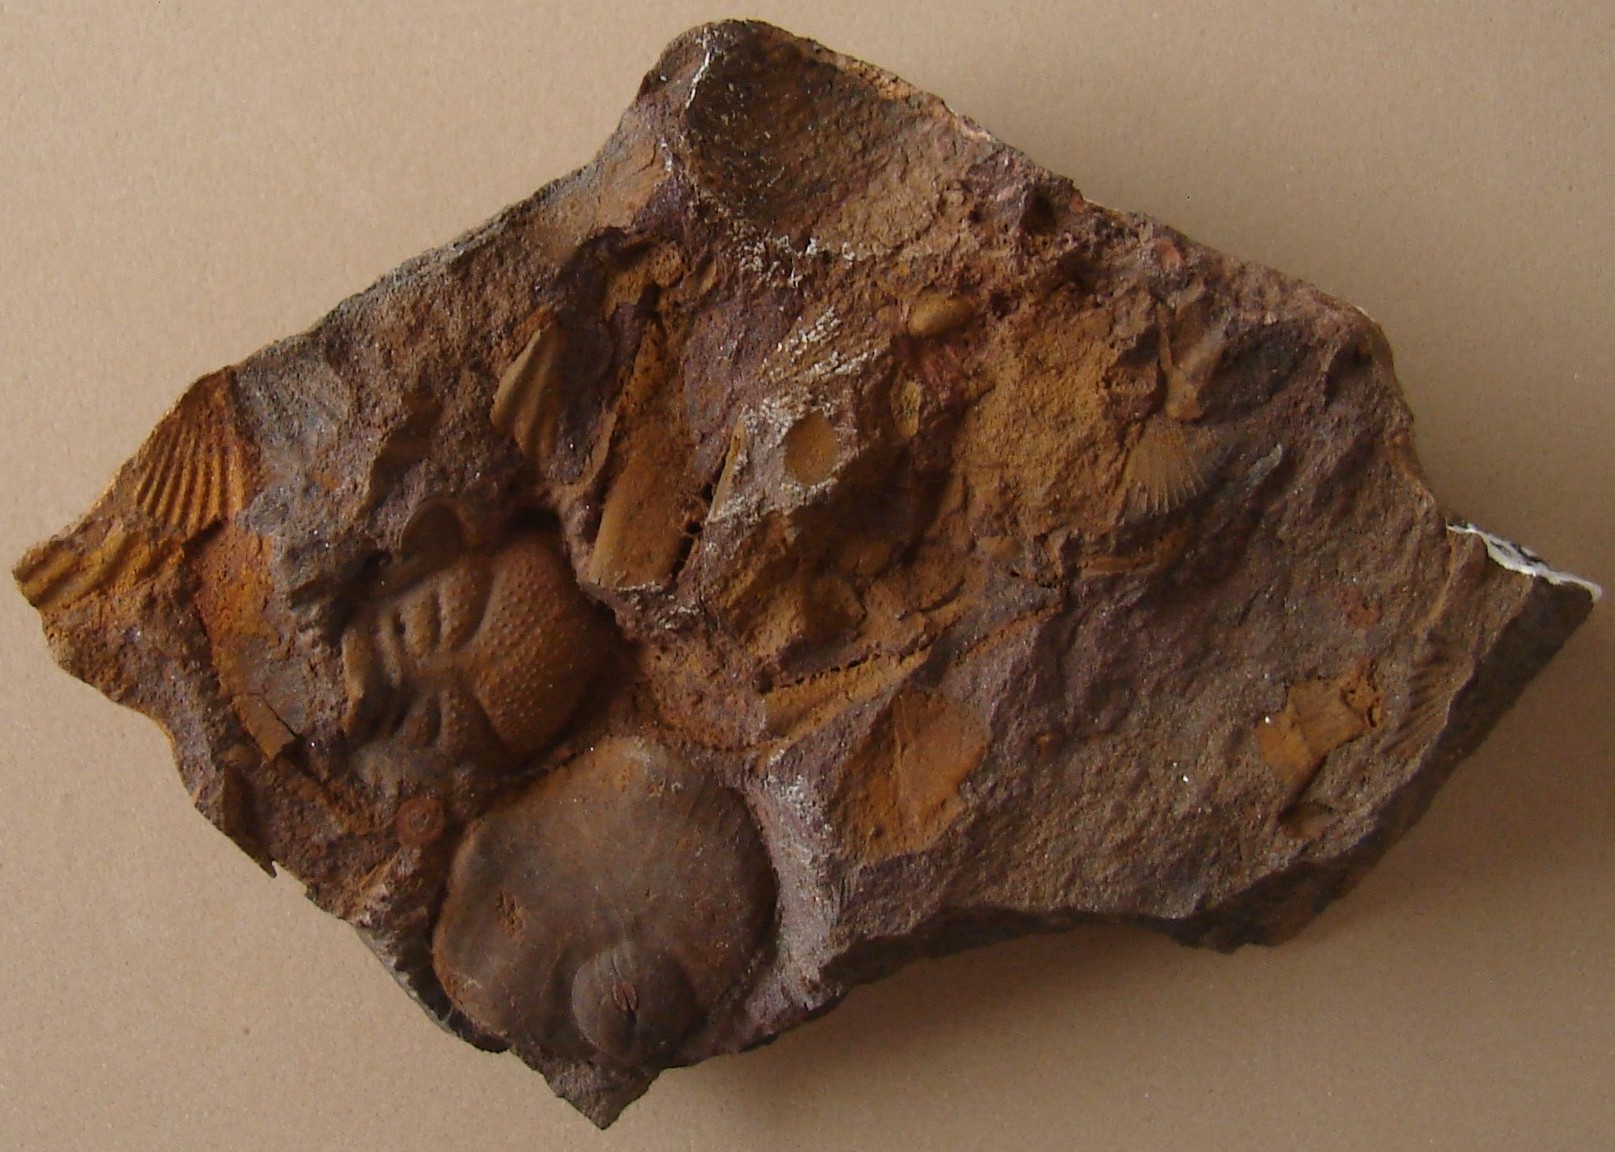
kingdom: Animalia
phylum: Arthropoda
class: Trilobita
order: Phacopida
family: Acastidae
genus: Pilletina
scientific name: Pilletina oeslingiana
